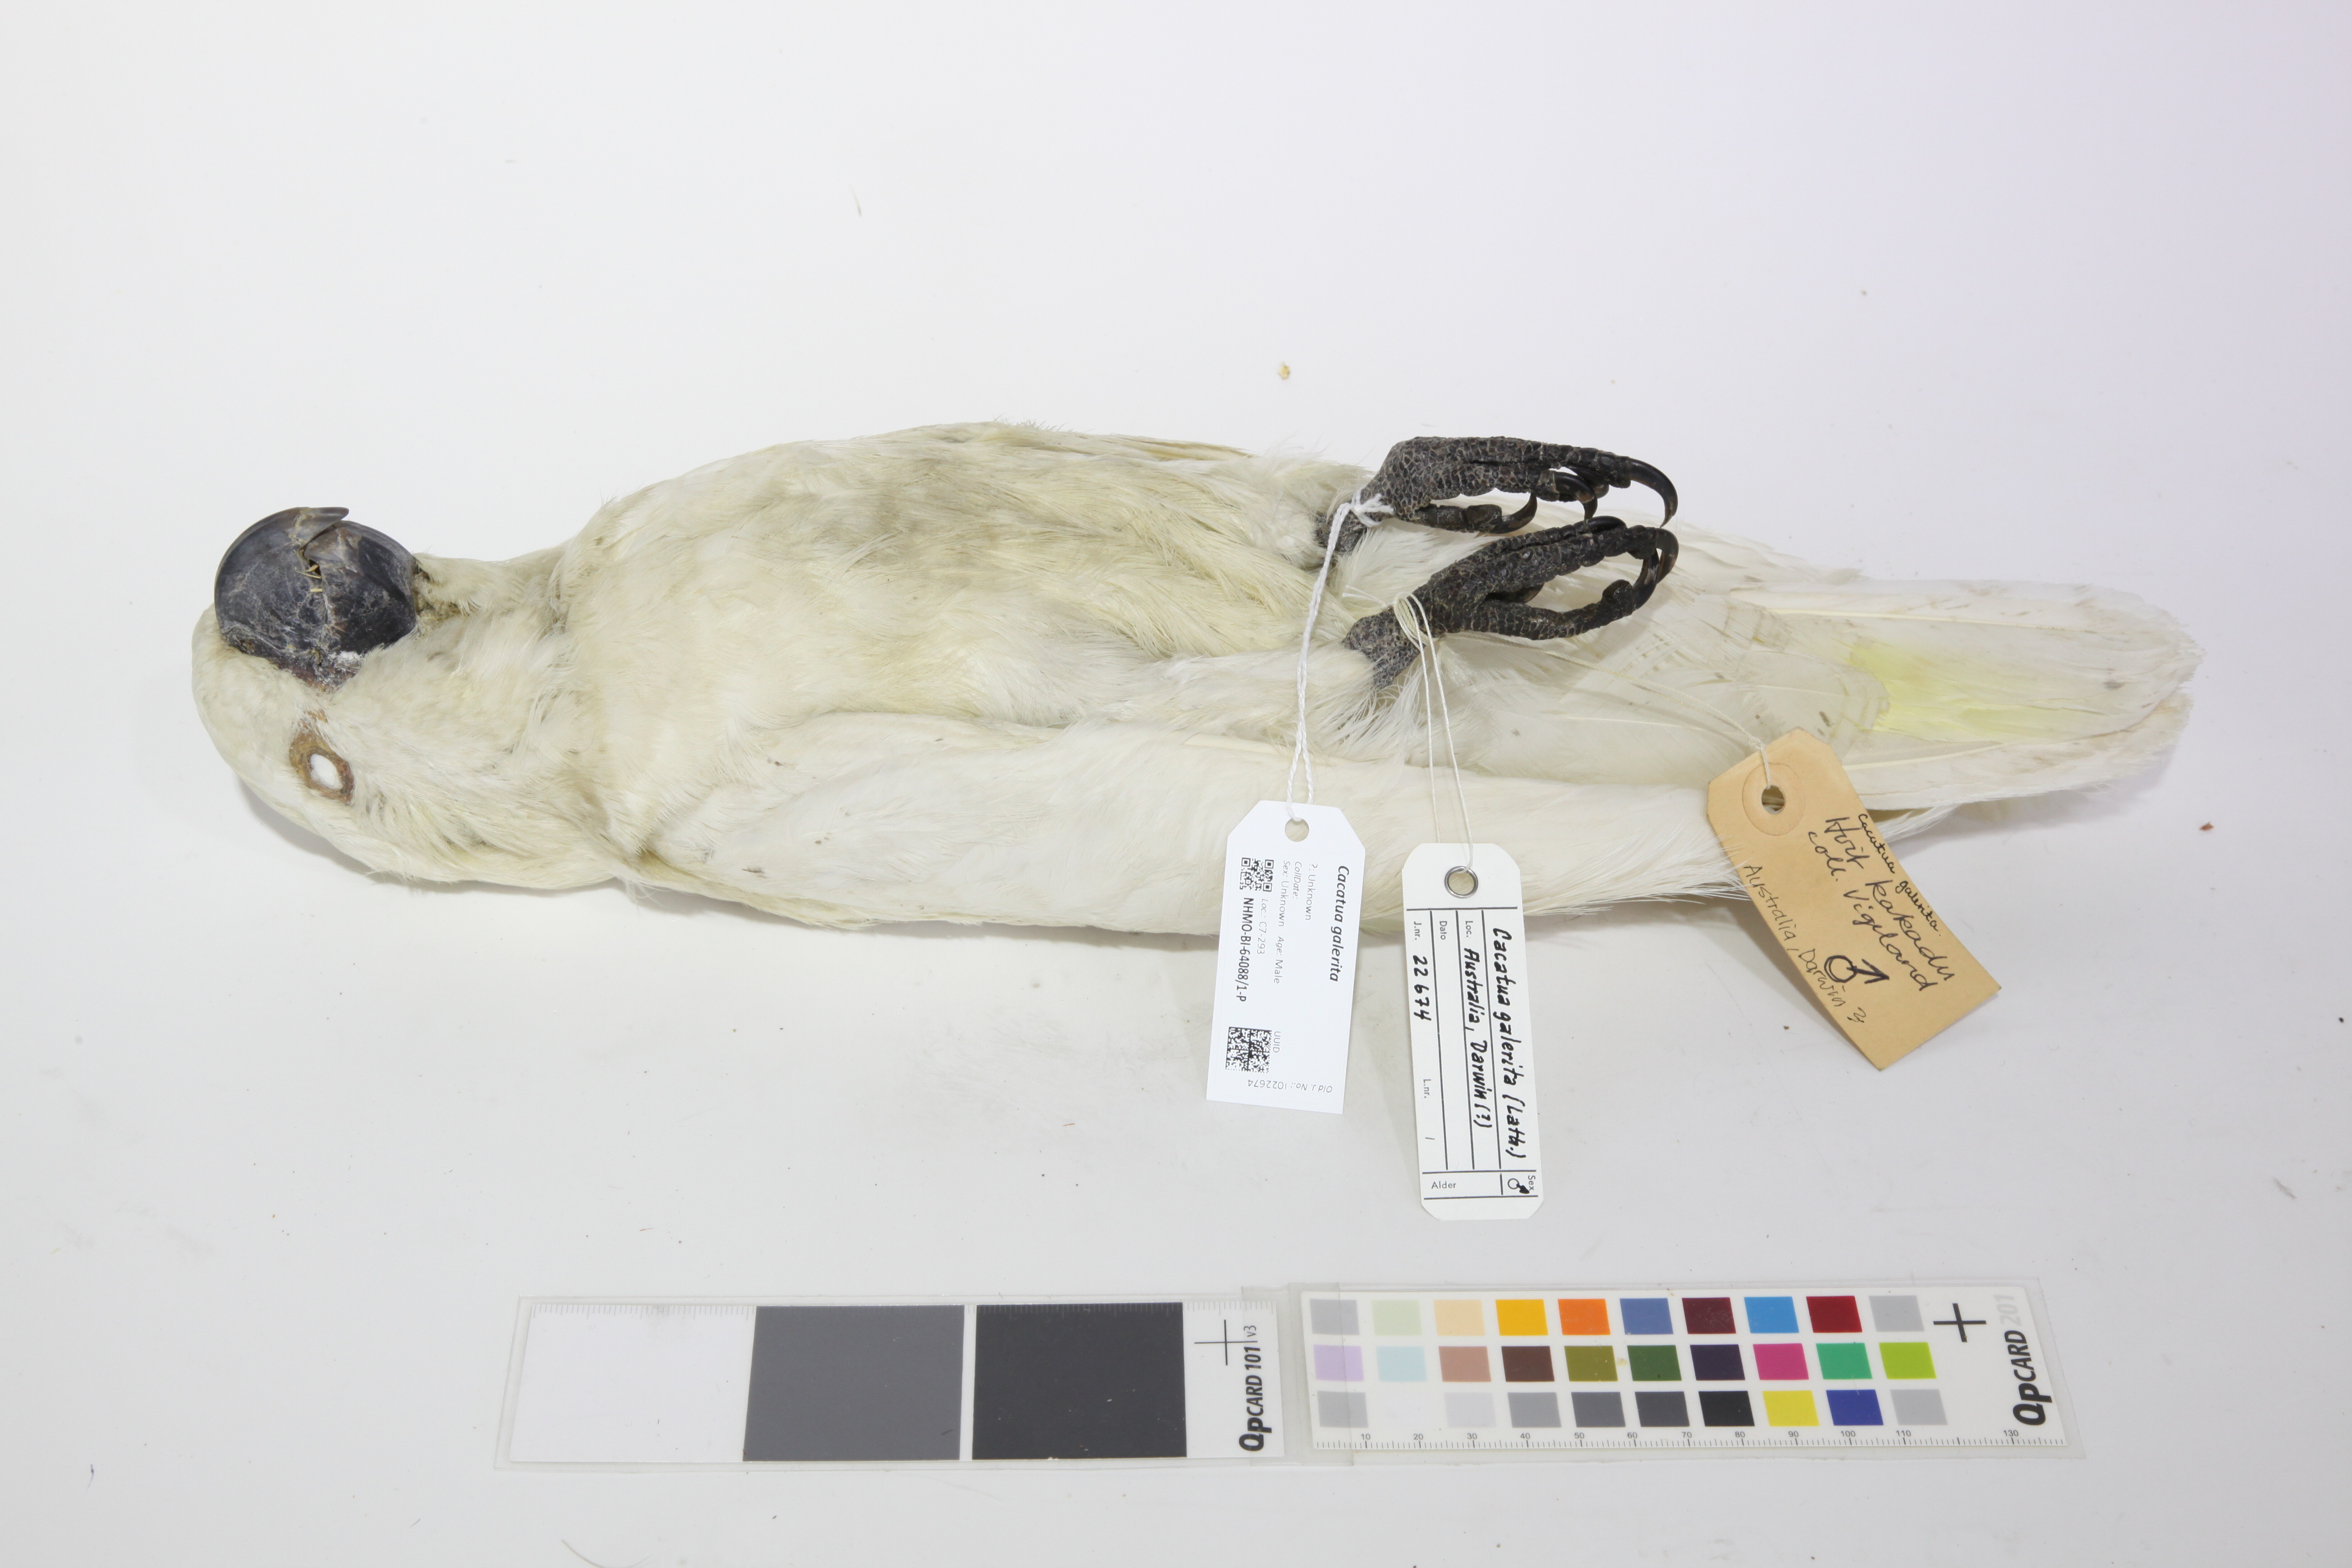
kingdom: Animalia
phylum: Chordata
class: Aves
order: Psittaciformes
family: Psittacidae
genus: Cacatua
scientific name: Cacatua galerita
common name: Sulphur-crested cockatoo
